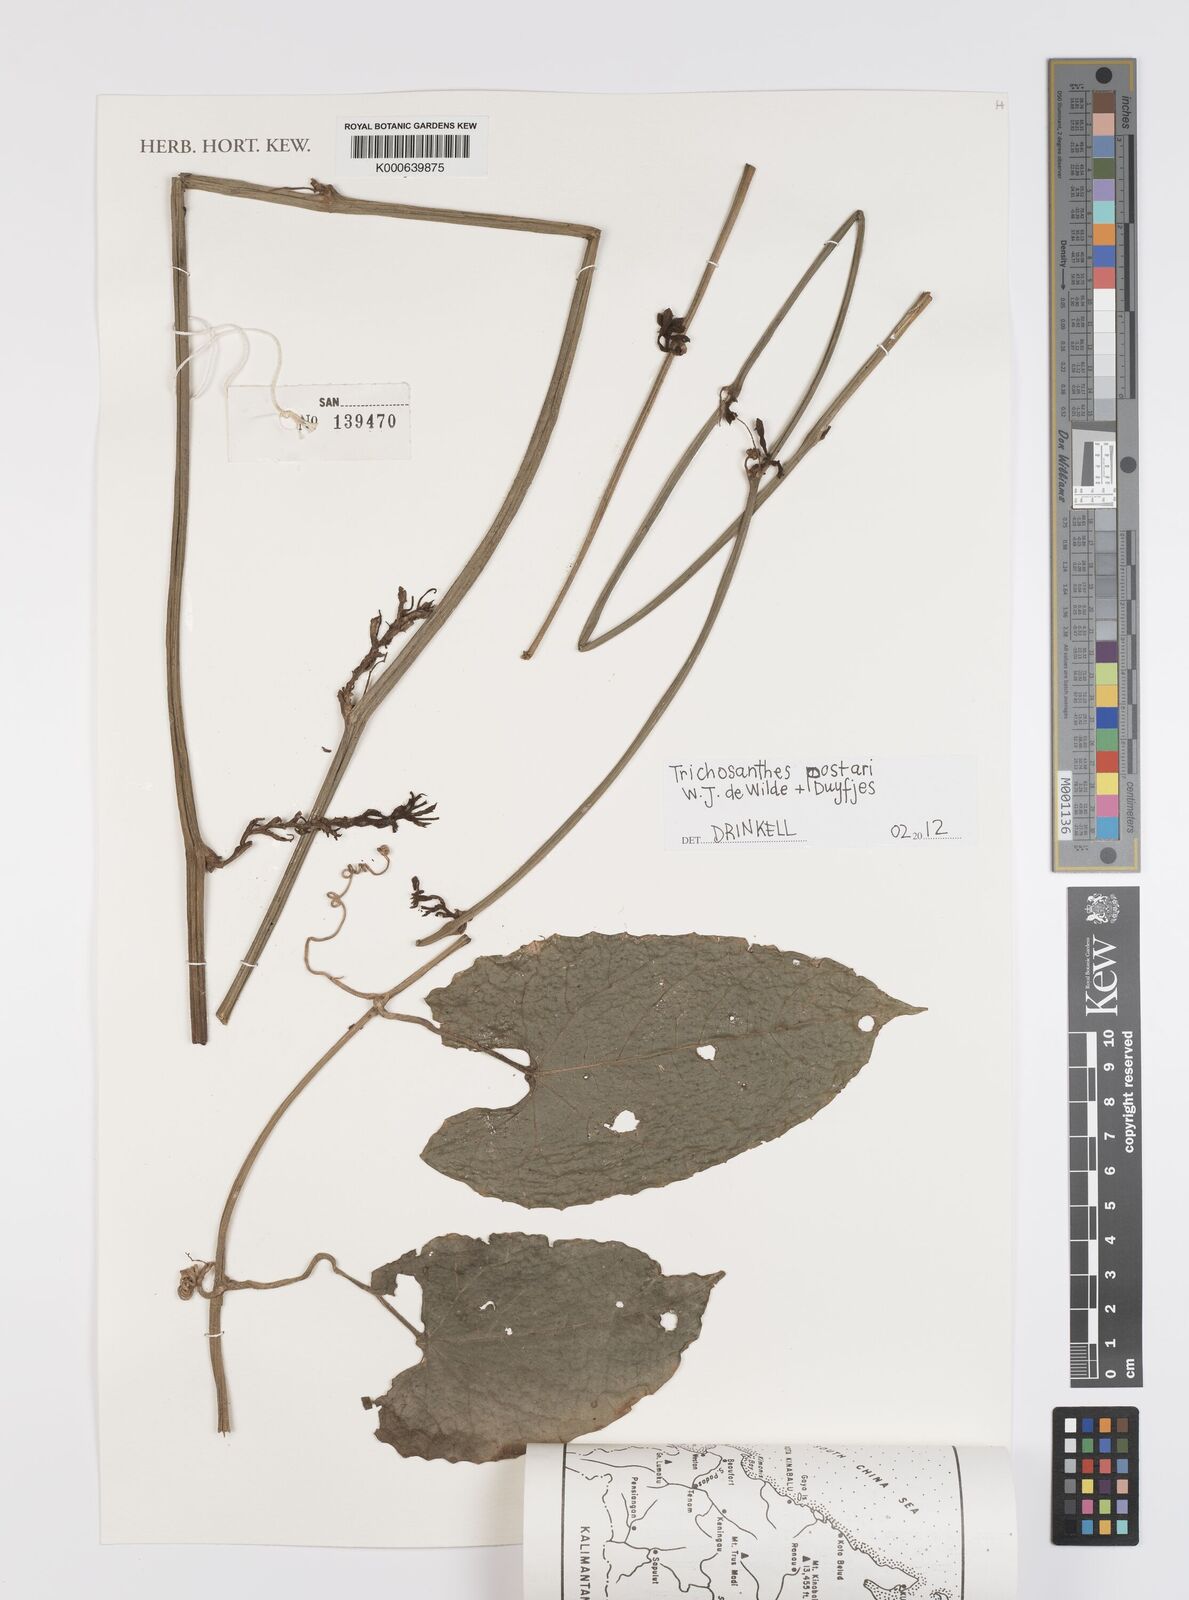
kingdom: Plantae
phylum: Tracheophyta
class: Magnoliopsida
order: Cucurbitales
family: Cucurbitaceae
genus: Trichosanthes
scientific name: Trichosanthes postarii
